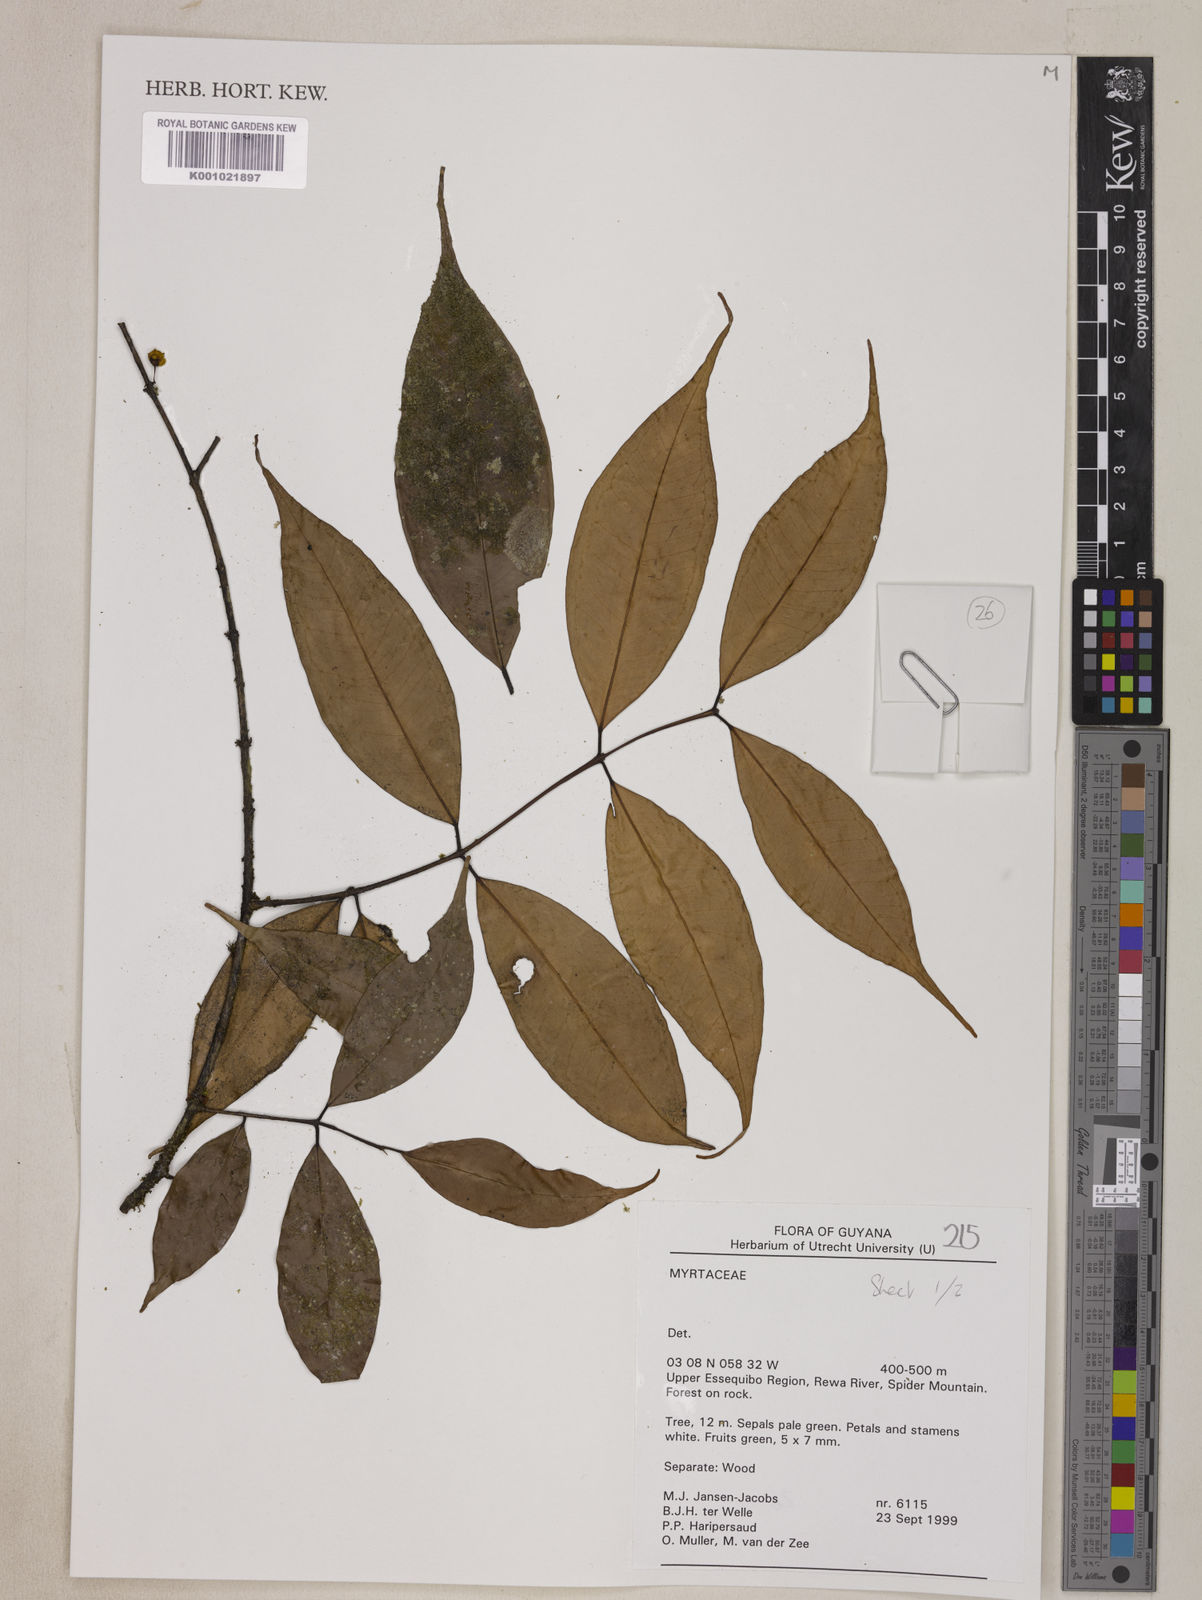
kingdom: Plantae
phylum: Tracheophyta
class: Magnoliopsida
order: Myrtales
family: Myrtaceae
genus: Eugenia
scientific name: Eugenia egensis
